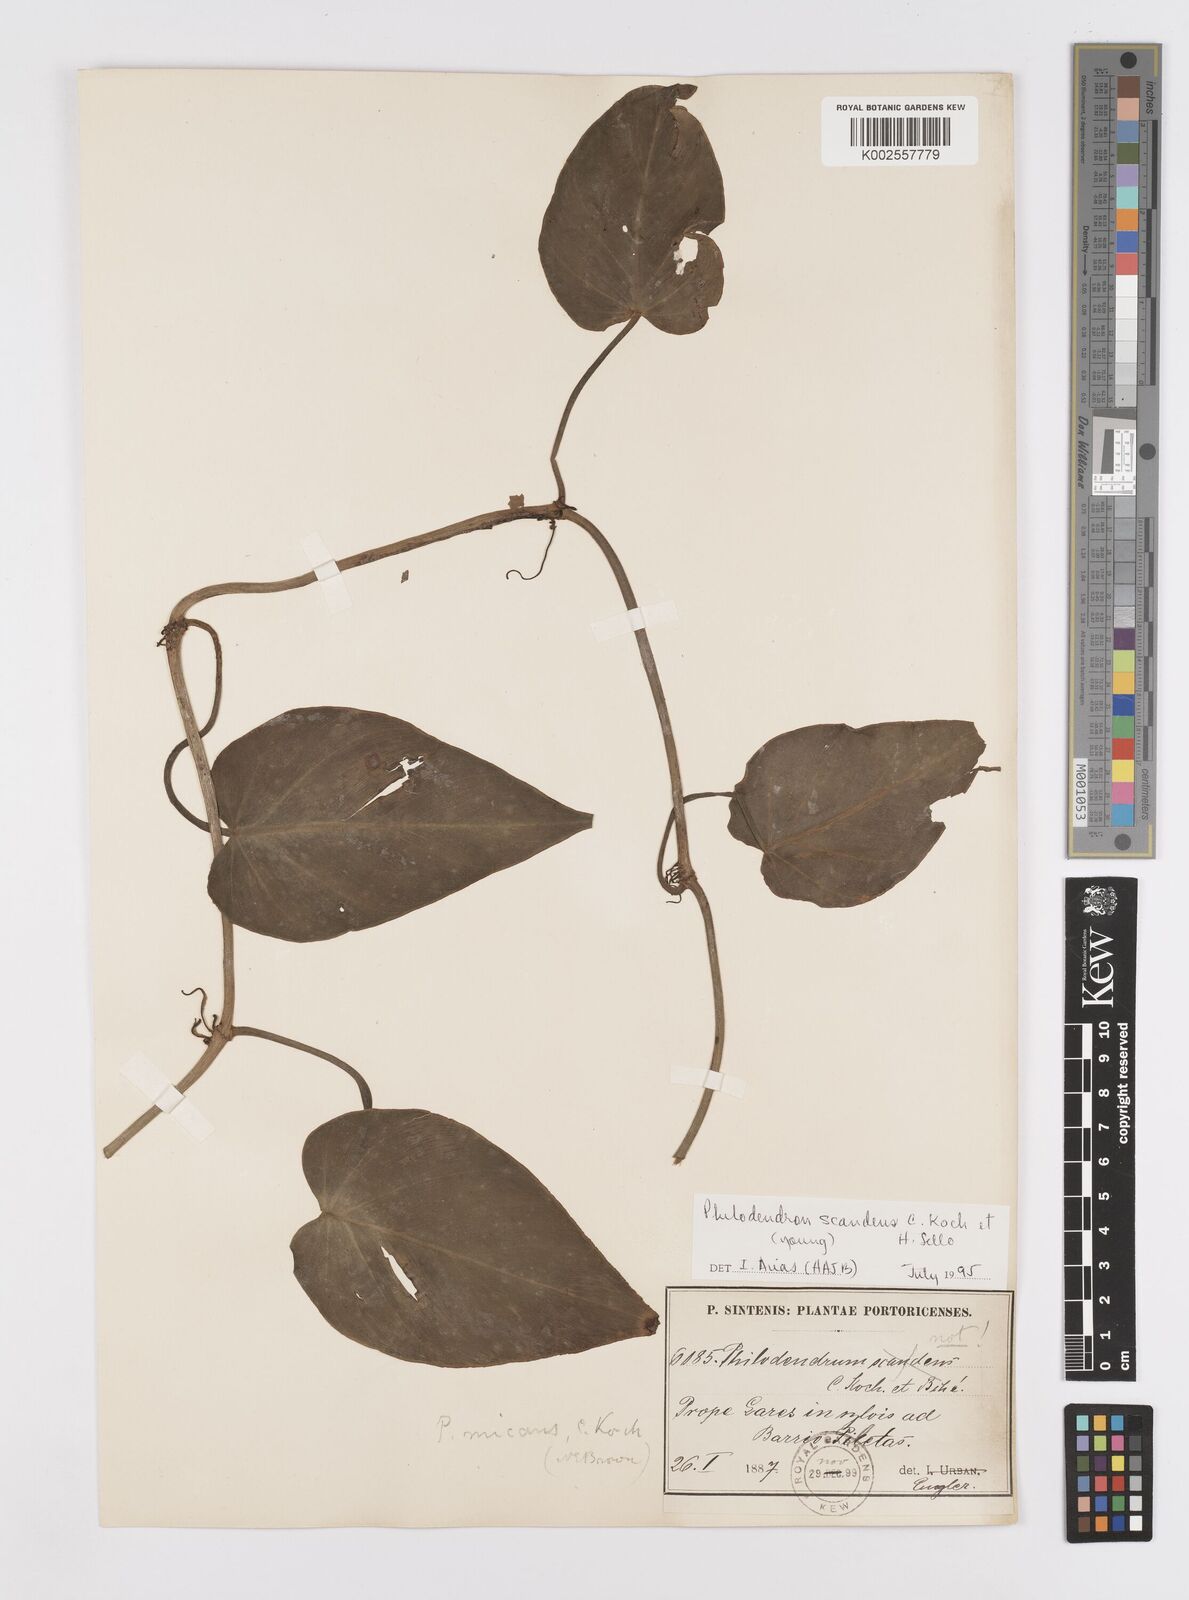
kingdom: Plantae
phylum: Tracheophyta
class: Liliopsida
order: Alismatales
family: Araceae
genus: Philodendron
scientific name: Philodendron hederaceum
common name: Vilevine
